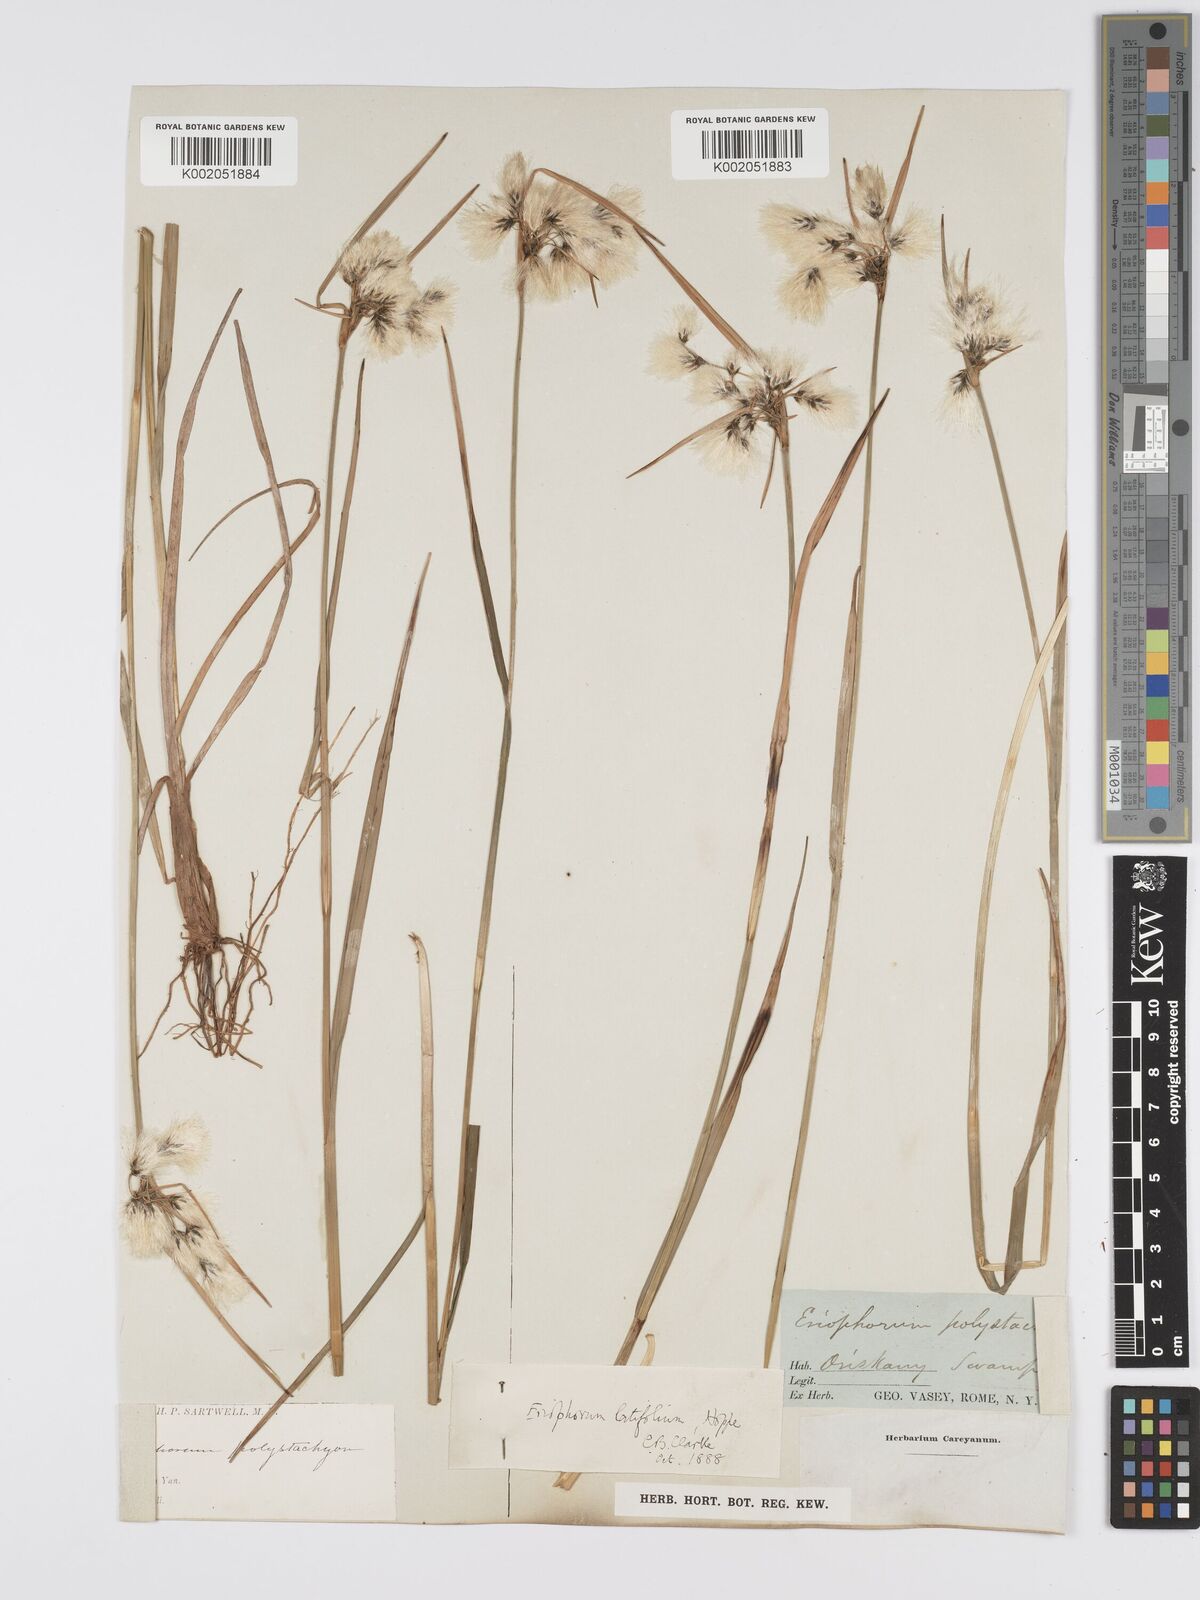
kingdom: Plantae
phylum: Tracheophyta
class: Liliopsida
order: Poales
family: Cyperaceae
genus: Eriophorum
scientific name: Eriophorum latifolium
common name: Broad-leaved cottongrass
